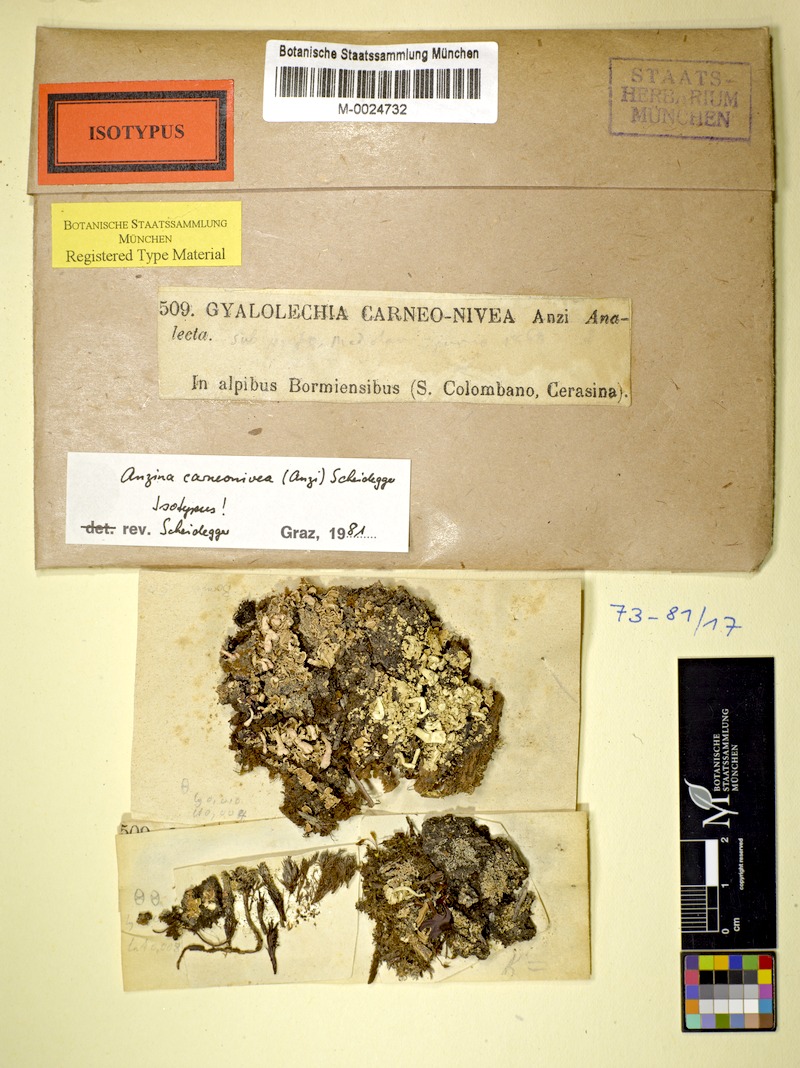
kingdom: Fungi
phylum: Ascomycota
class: Lecanoromycetes
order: Ostropales
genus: Anzina
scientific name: Anzina carneonivea
